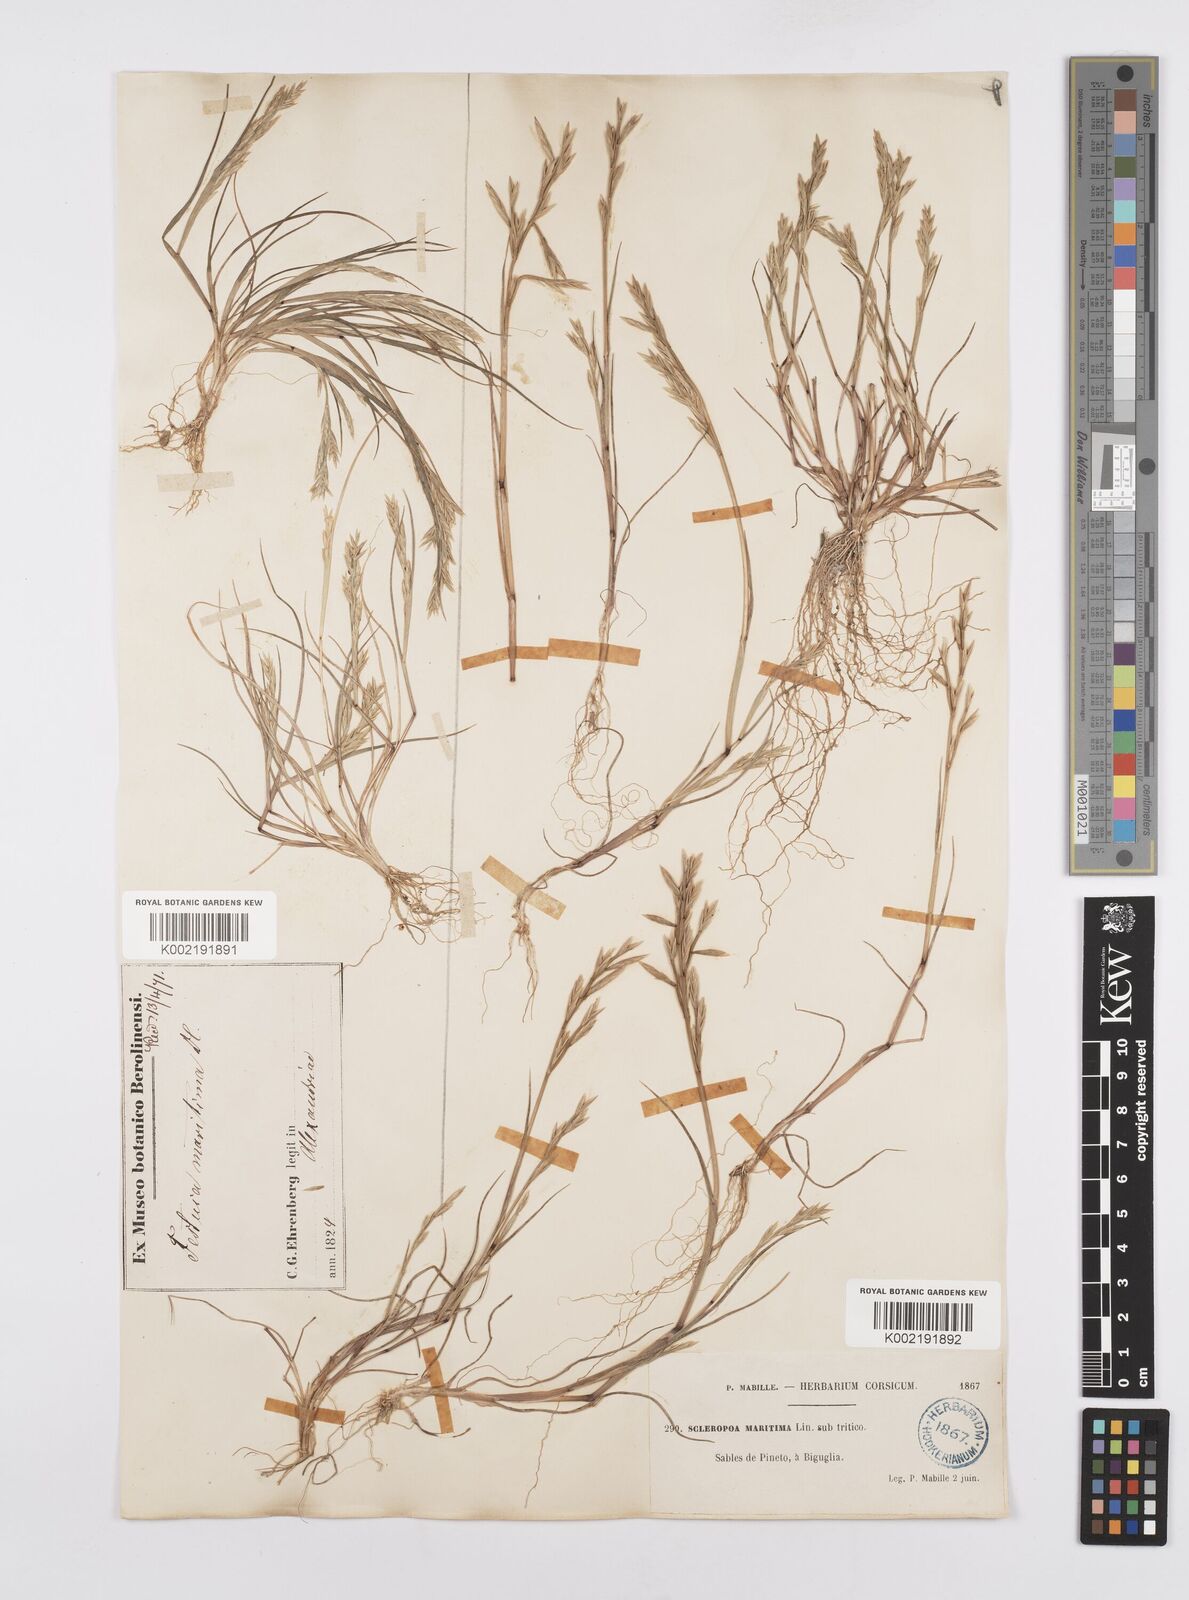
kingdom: Plantae
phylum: Tracheophyta
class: Liliopsida
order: Poales
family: Poaceae
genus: Cutandia
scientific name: Cutandia maritima
